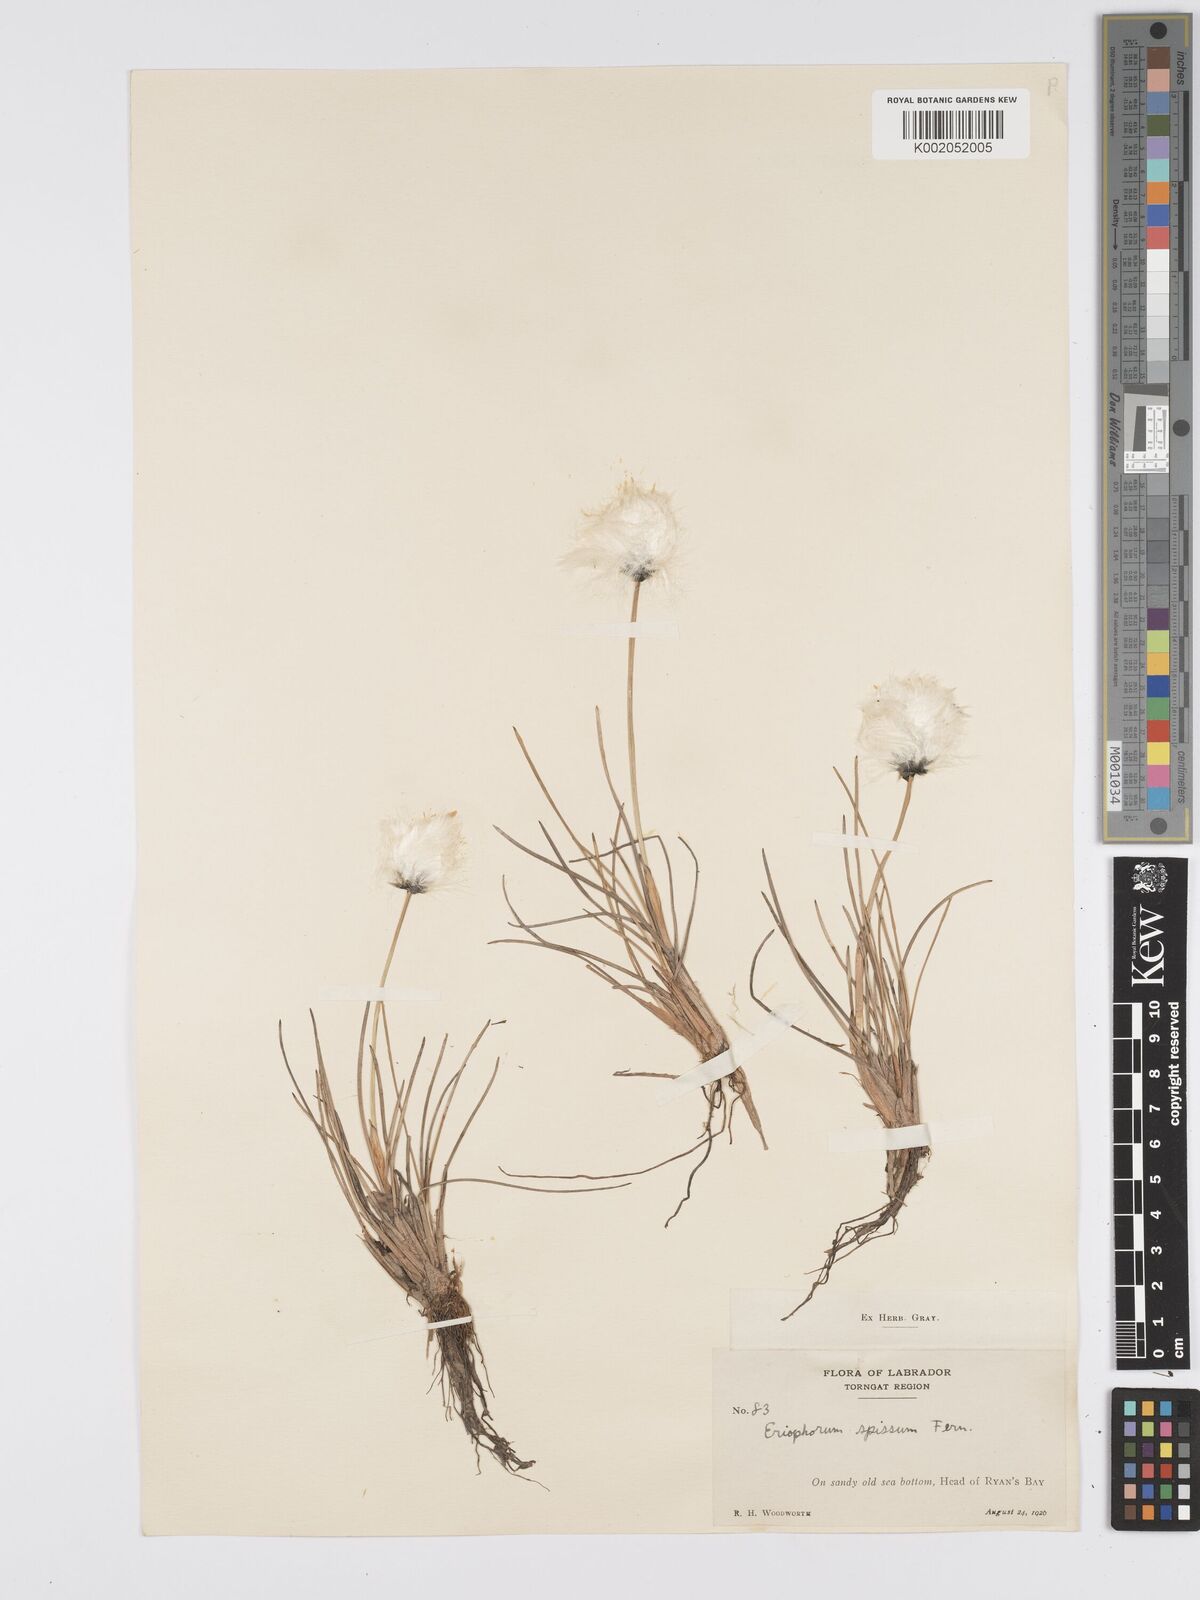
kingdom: Plantae
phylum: Tracheophyta
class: Liliopsida
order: Poales
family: Cyperaceae
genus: Eriophorum
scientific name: Eriophorum vaginatum
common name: Hare's-tail cottongrass
